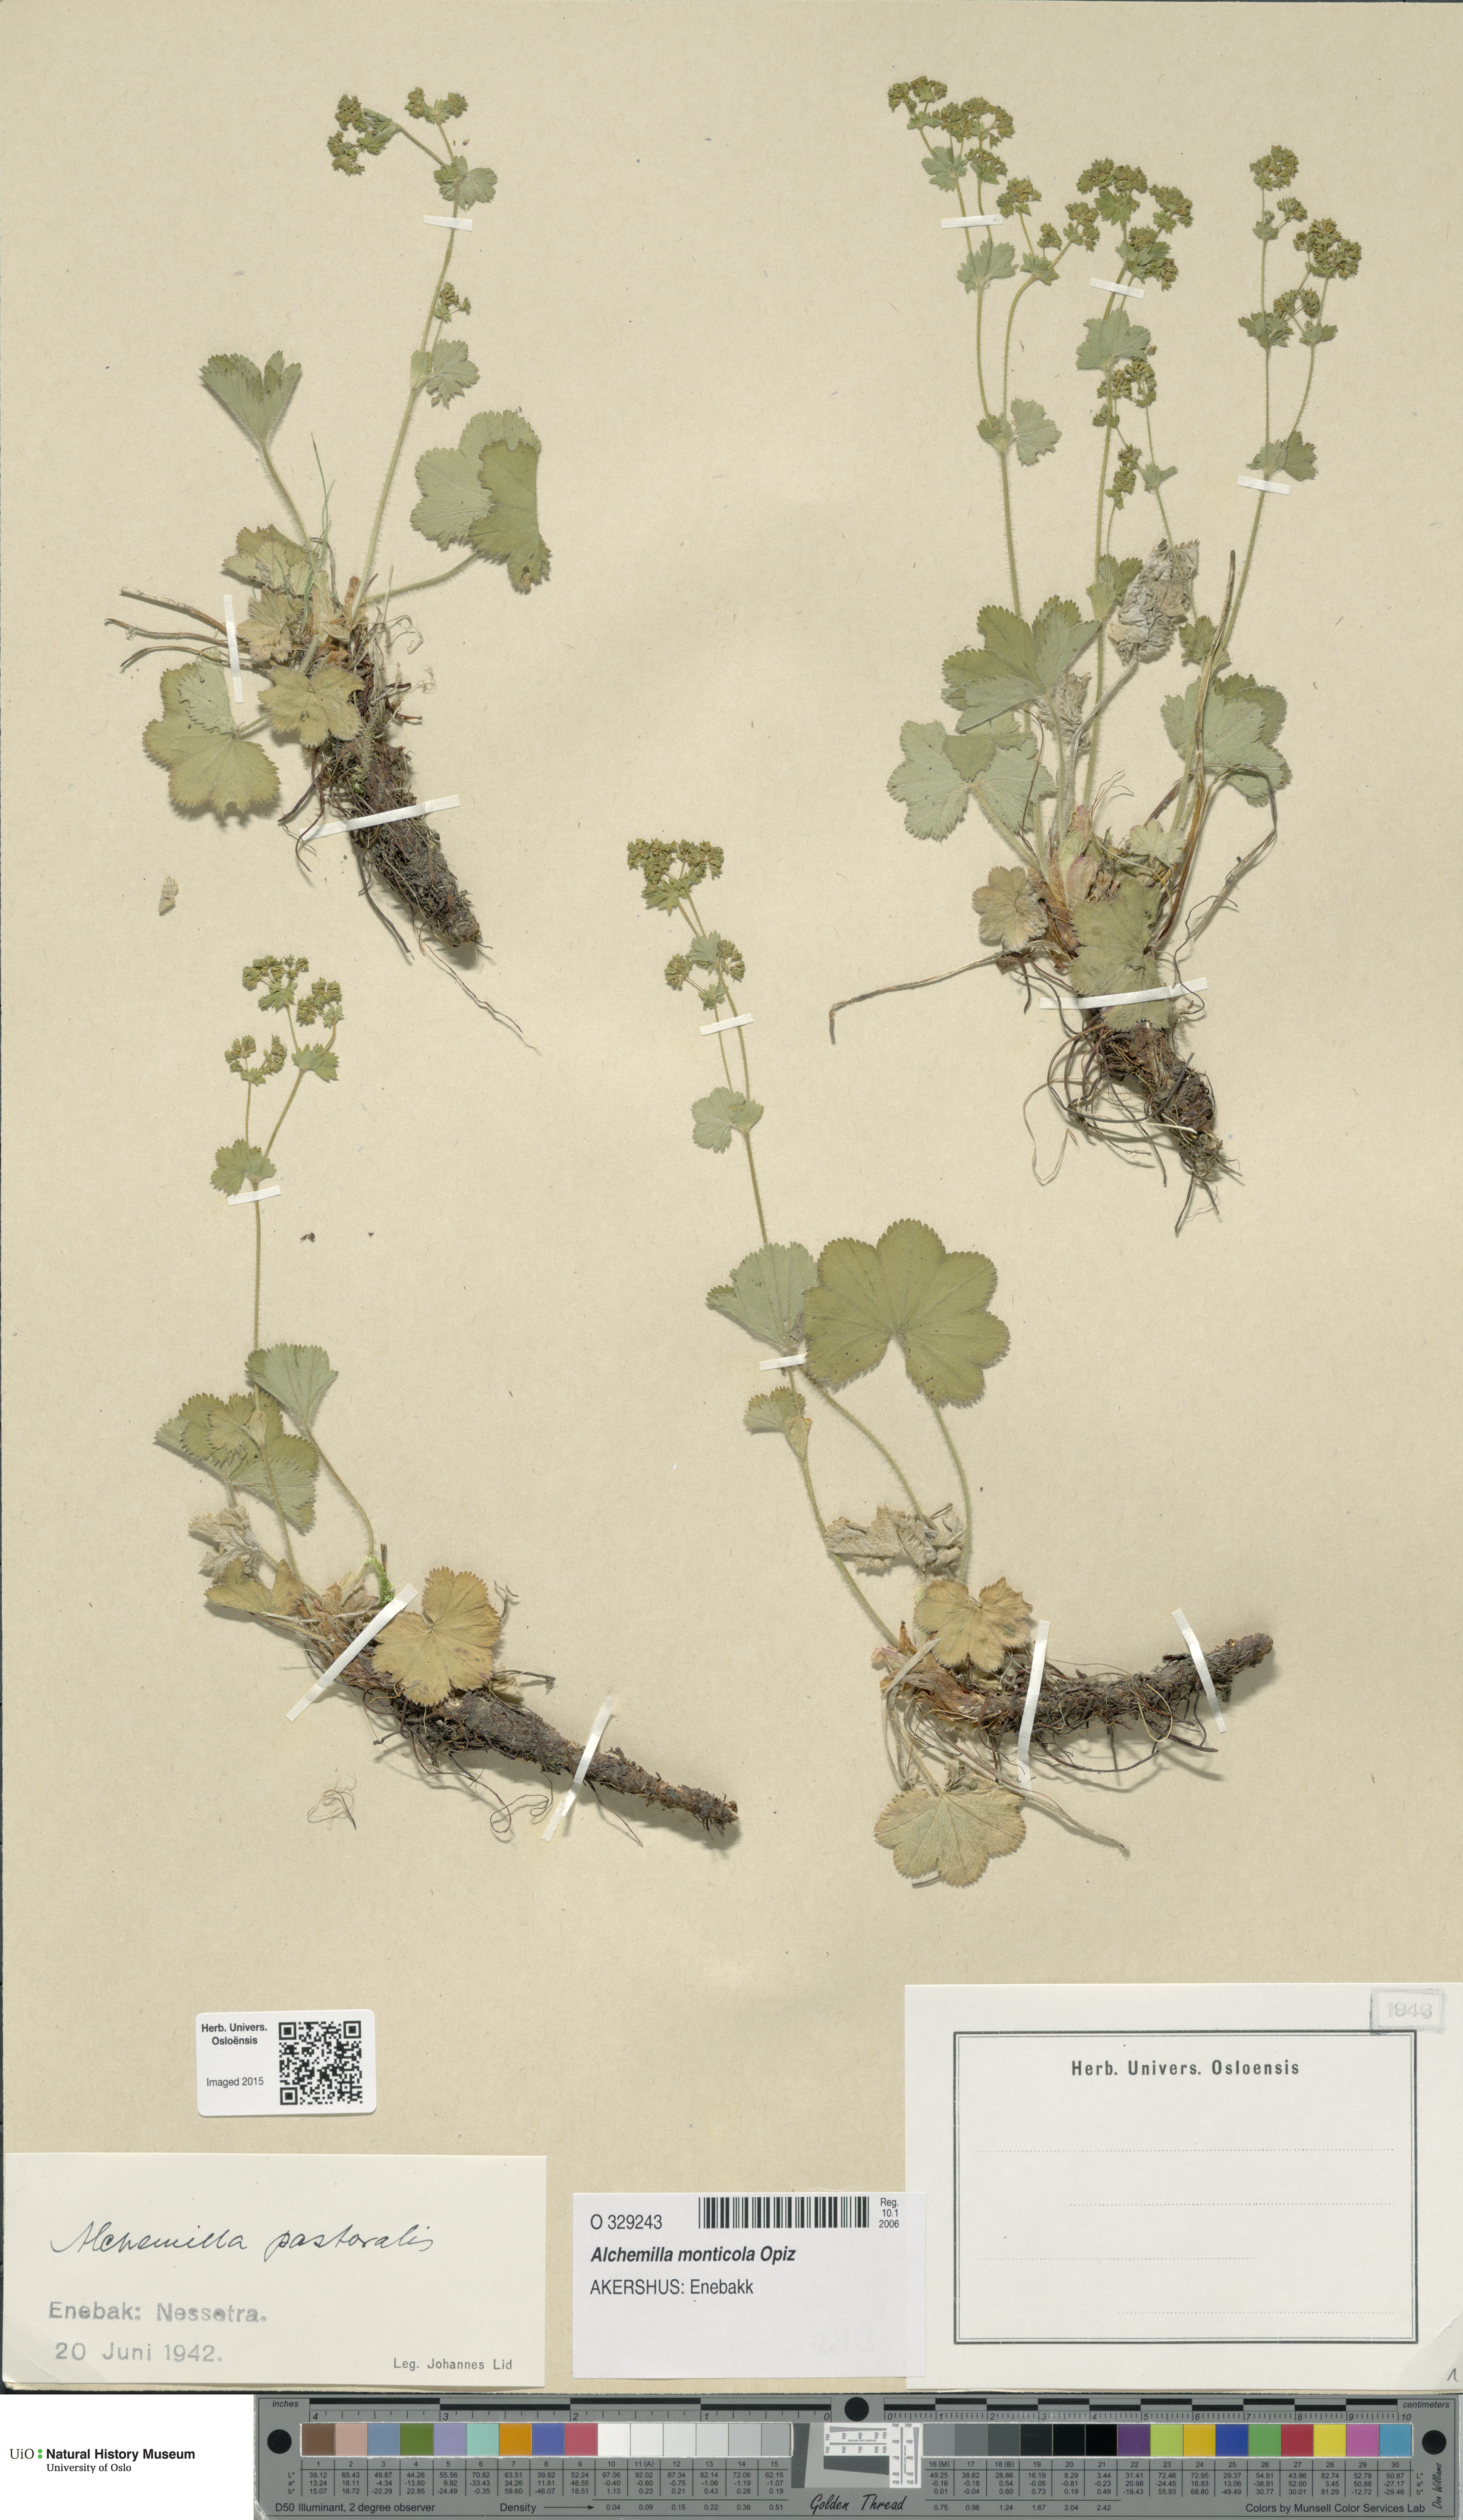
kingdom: Plantae
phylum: Tracheophyta
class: Magnoliopsida
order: Rosales
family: Rosaceae
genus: Alchemilla
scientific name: Alchemilla monticola
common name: Hairy lady's mantle
